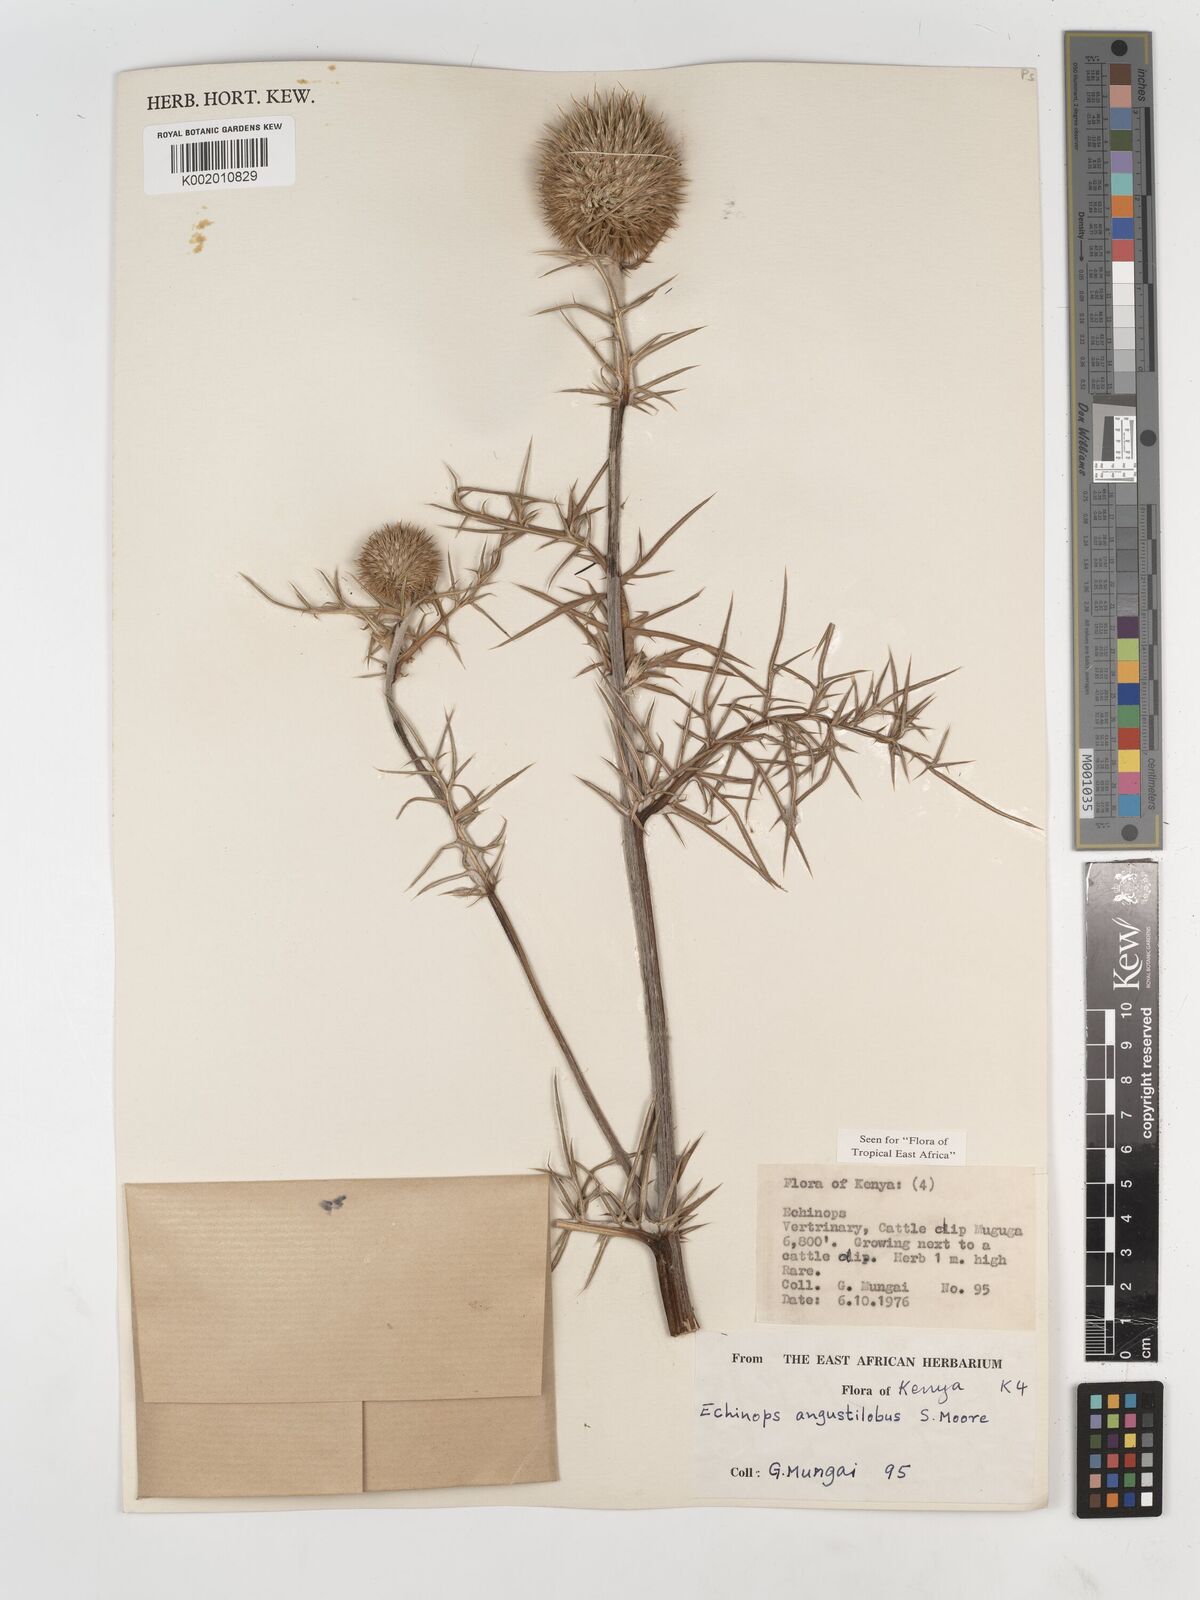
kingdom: Plantae
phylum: Tracheophyta
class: Magnoliopsida
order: Asterales
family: Asteraceae
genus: Echinops
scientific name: Echinops angustilobus
